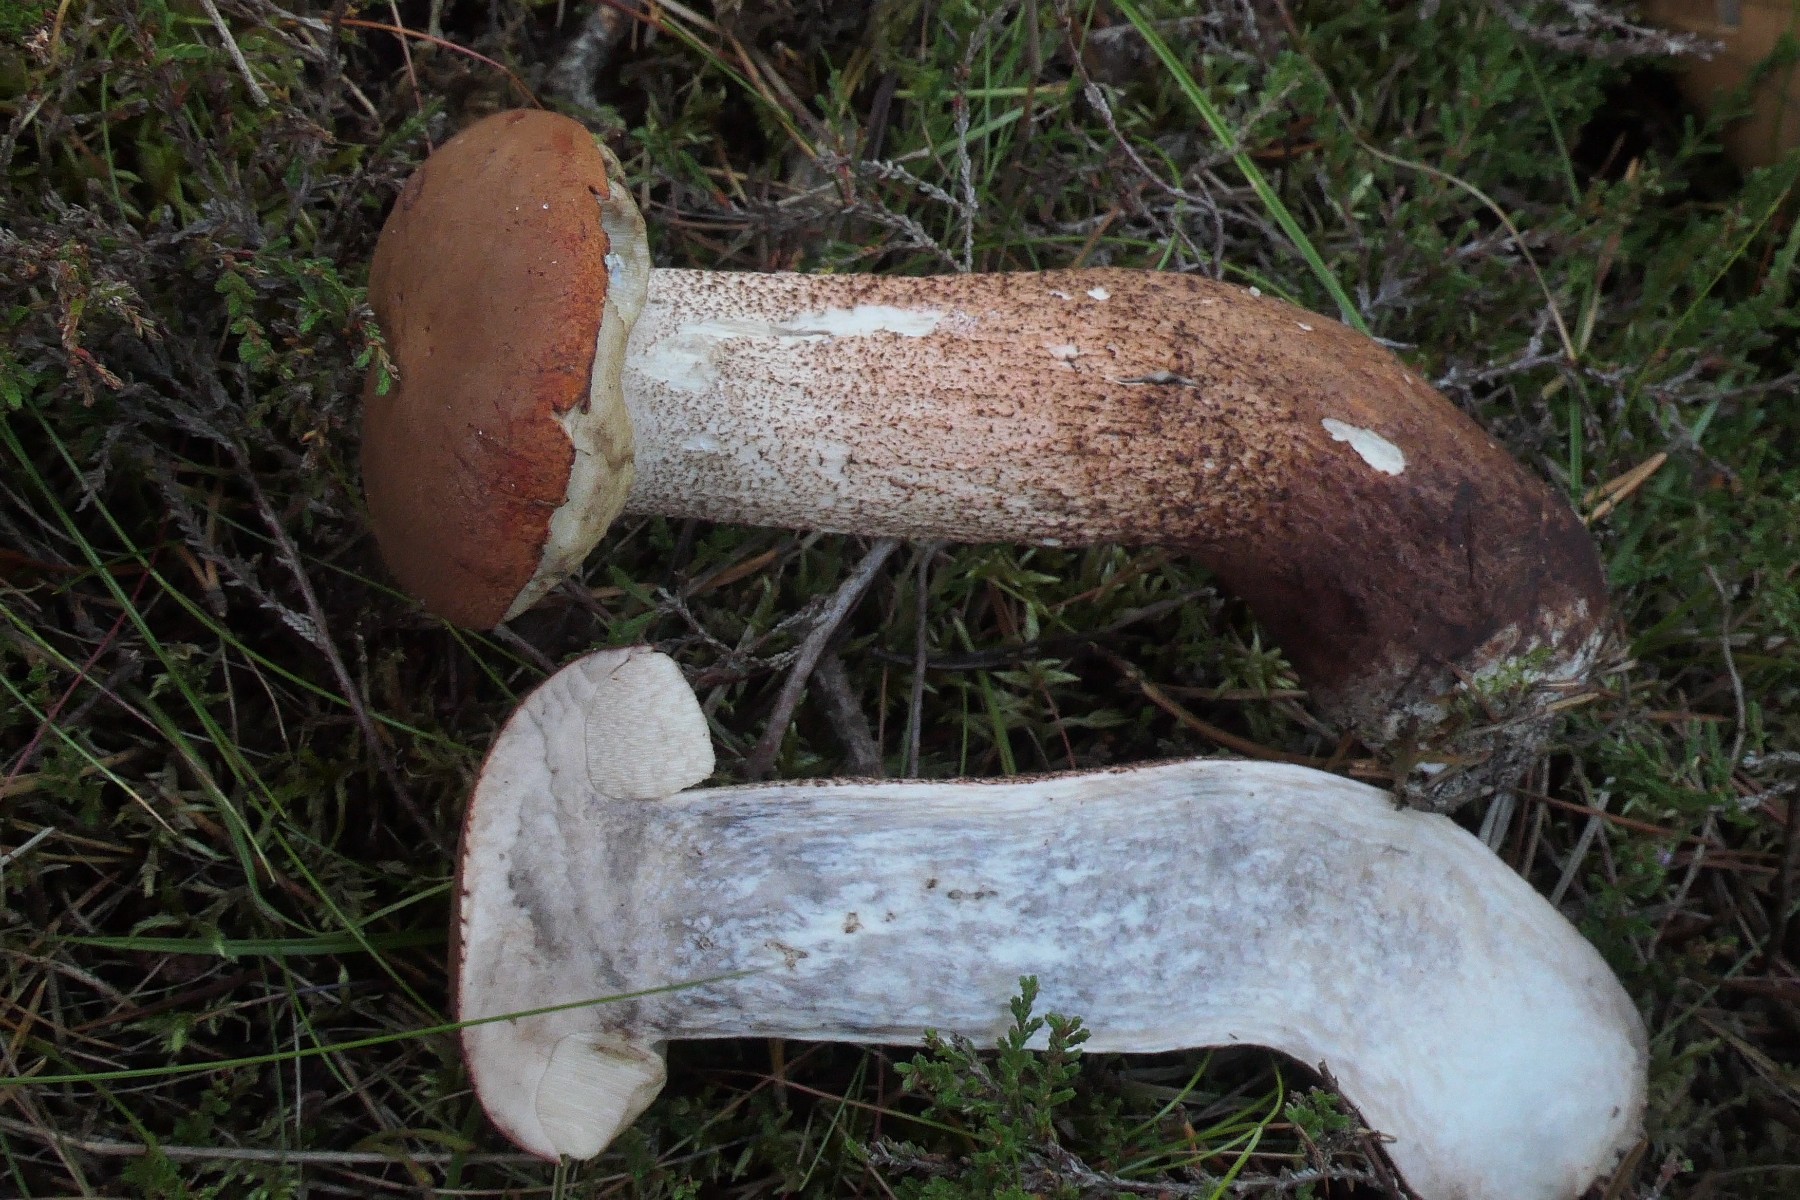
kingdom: Fungi
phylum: Basidiomycota
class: Agaricomycetes
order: Boletales
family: Boletaceae
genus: Leccinum
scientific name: Leccinum aurantiacum
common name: rustrød skælrørhat
